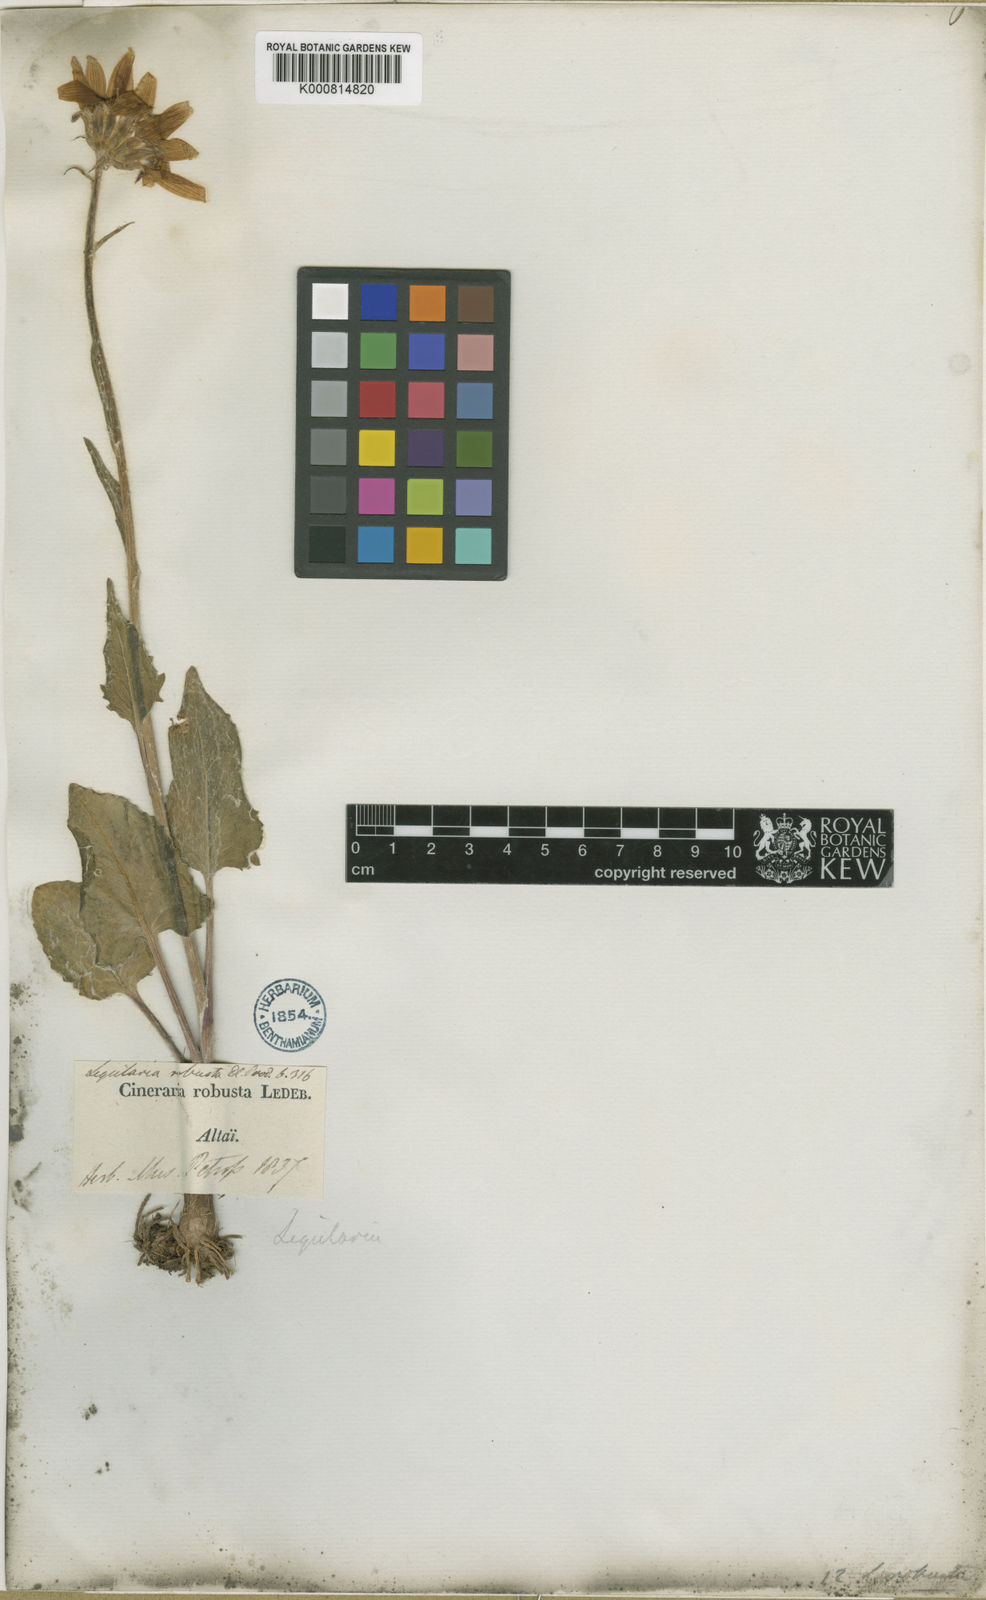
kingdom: Plantae
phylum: Tracheophyta
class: Magnoliopsida
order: Asterales
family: Asteraceae
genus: Vickifunkia
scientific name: Vickifunkia robusta
